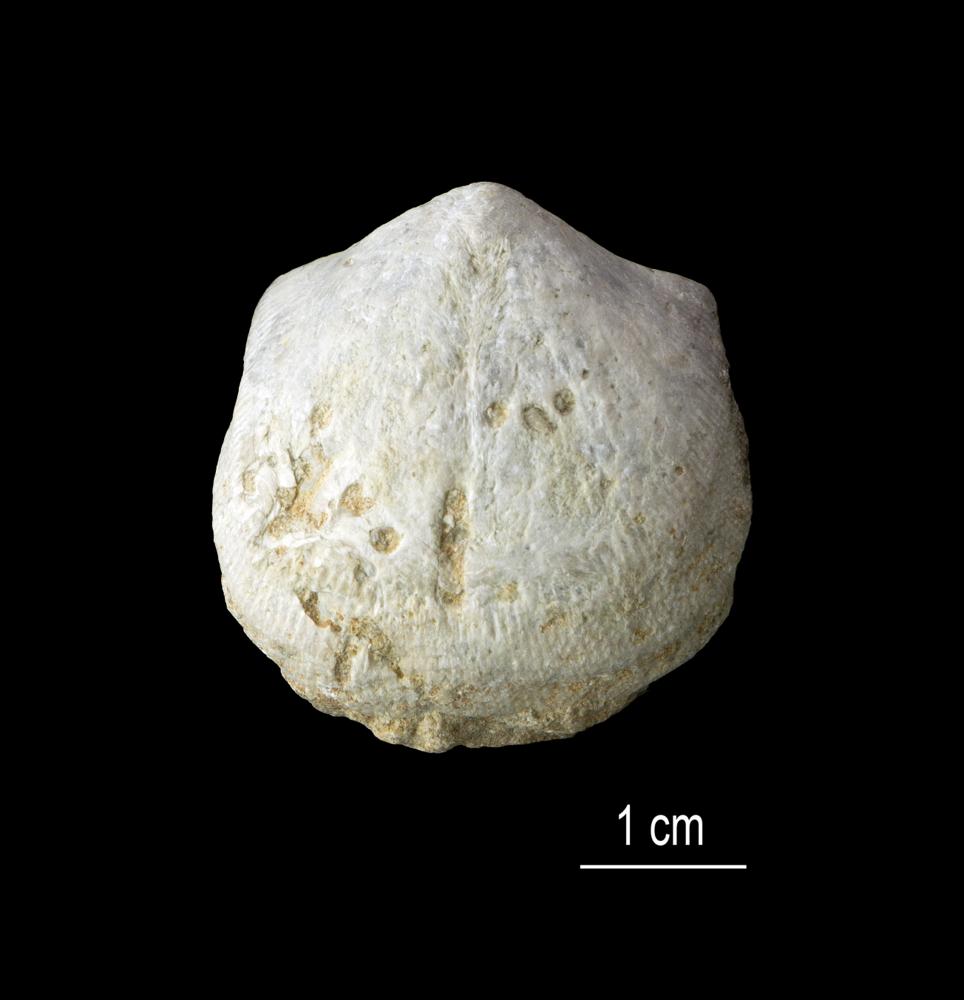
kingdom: Animalia
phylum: Brachiopoda
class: Rhynchonellata
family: Clitambonitidae
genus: Clitambonites
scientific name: Clitambonites squamatus
